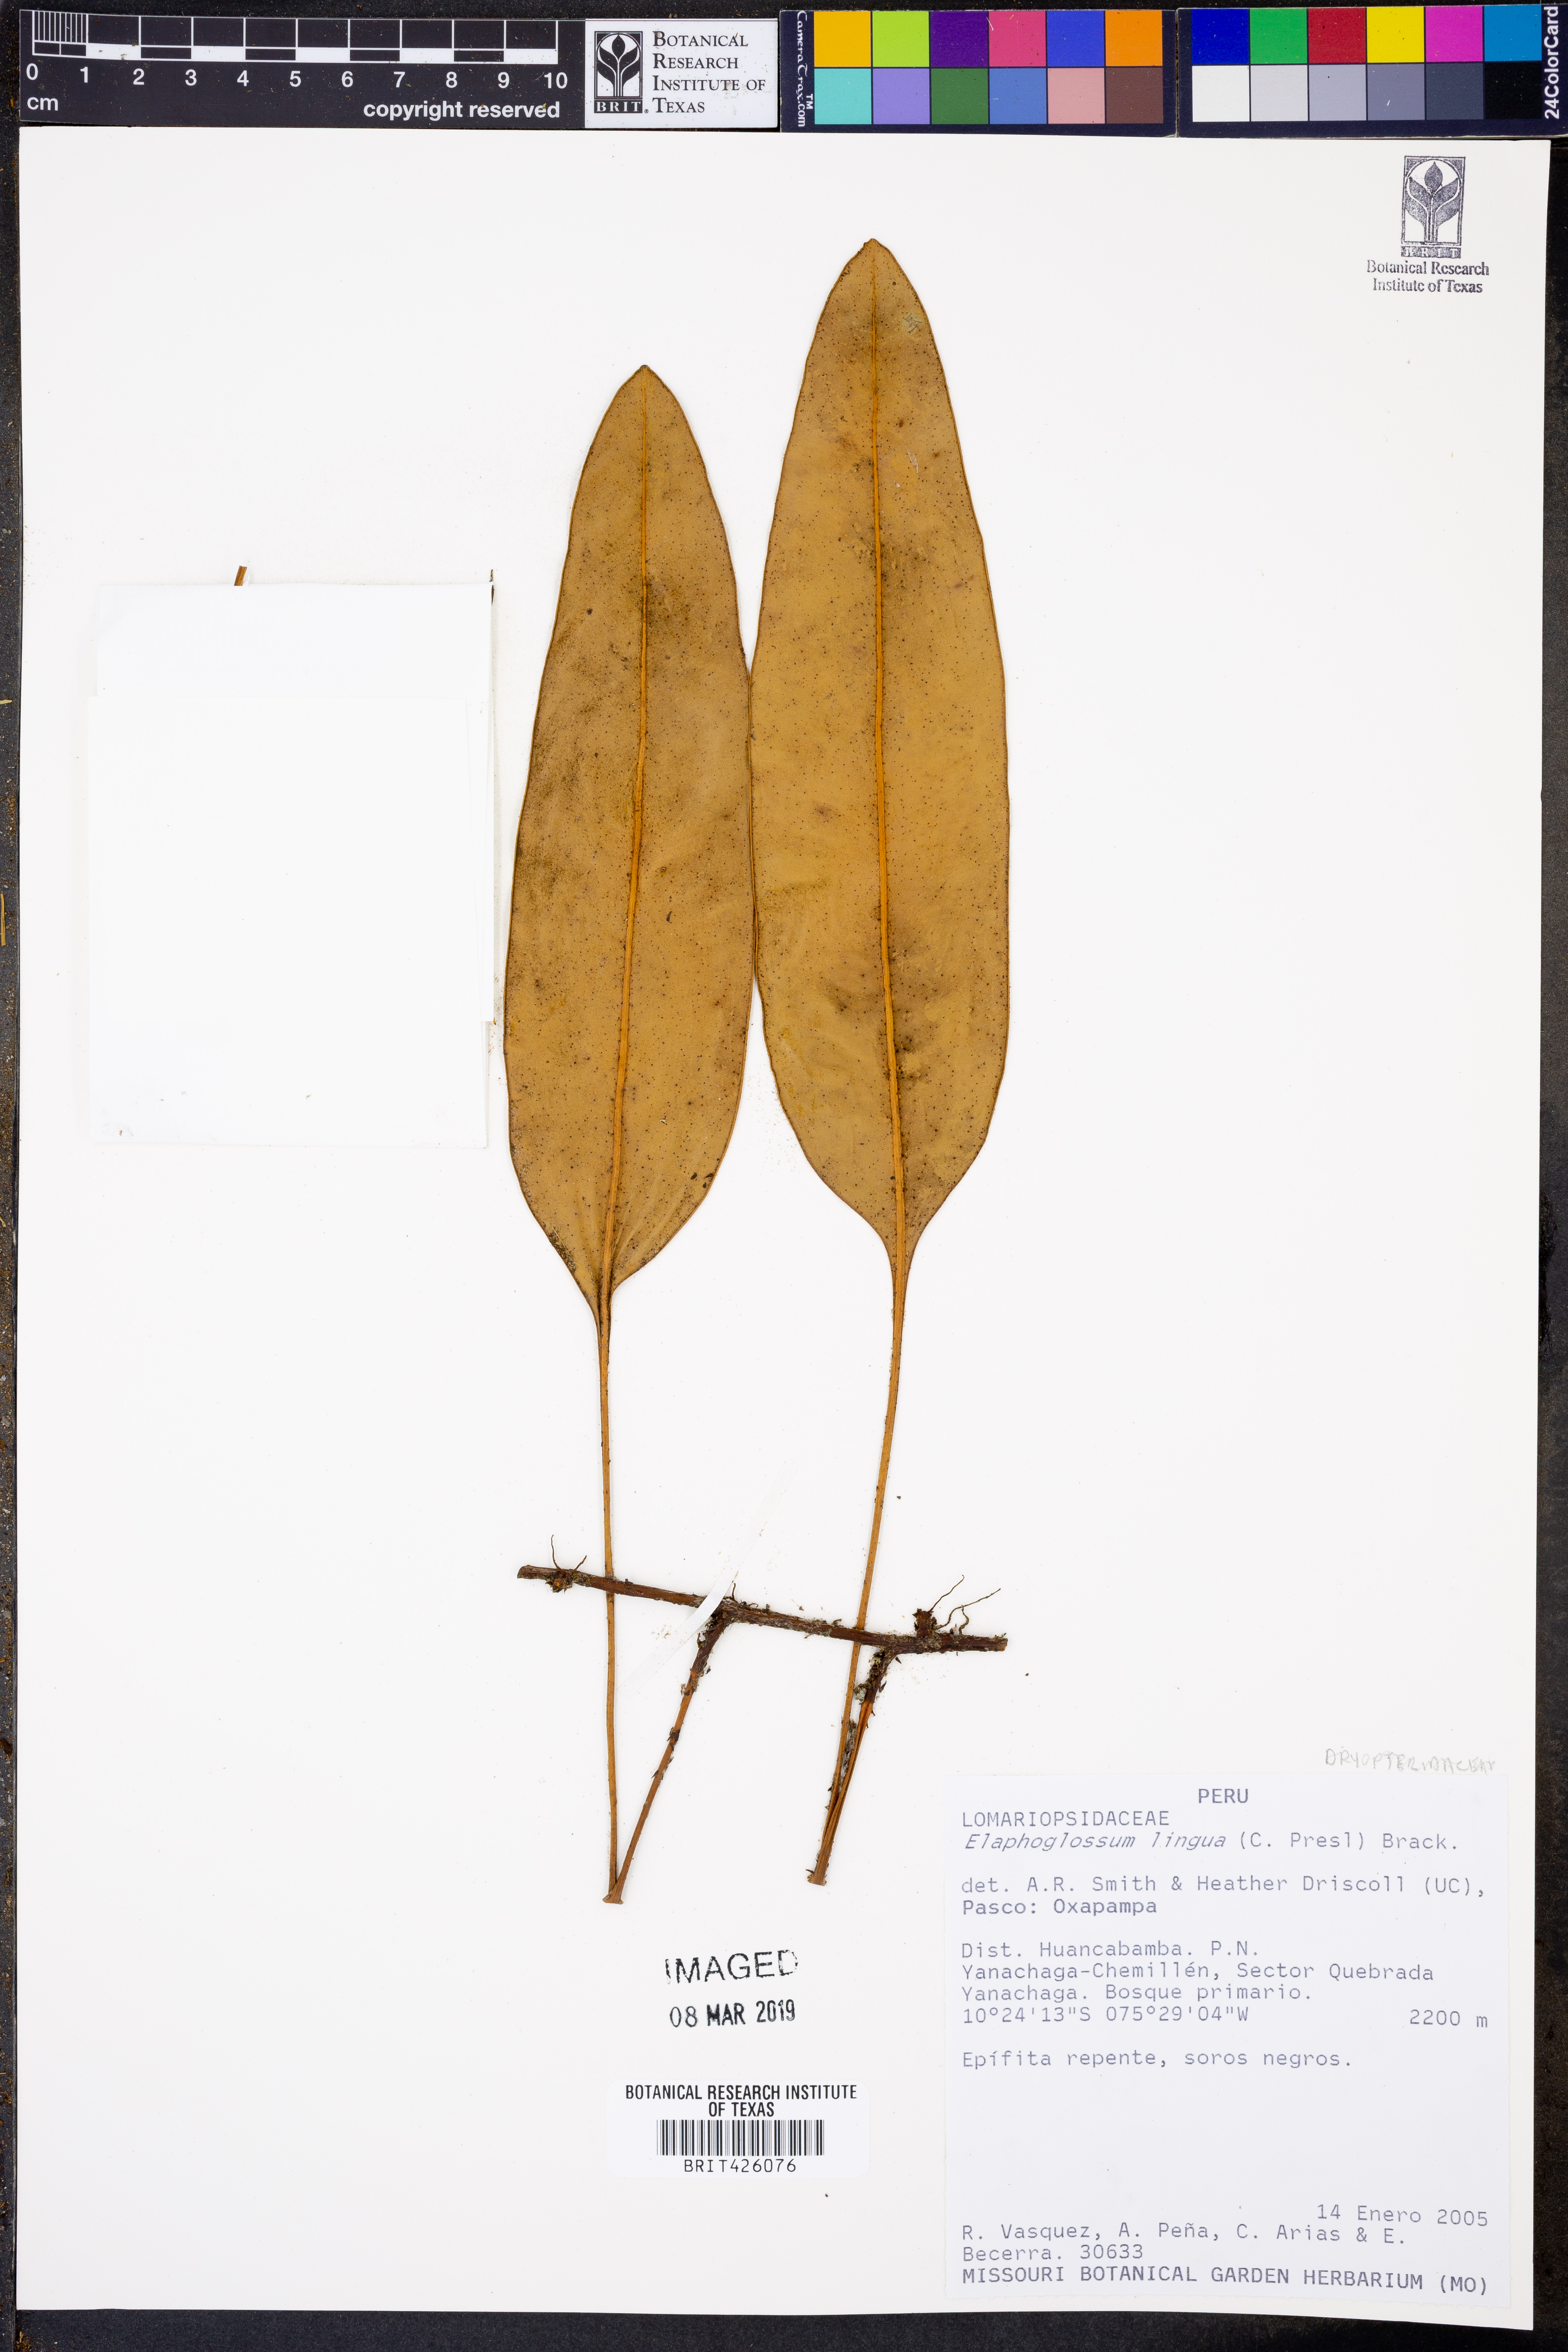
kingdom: Plantae
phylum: Tracheophyta
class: Polypodiopsida
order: Polypodiales
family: Dryopteridaceae
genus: Elaphoglossum
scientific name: Elaphoglossum lingua
